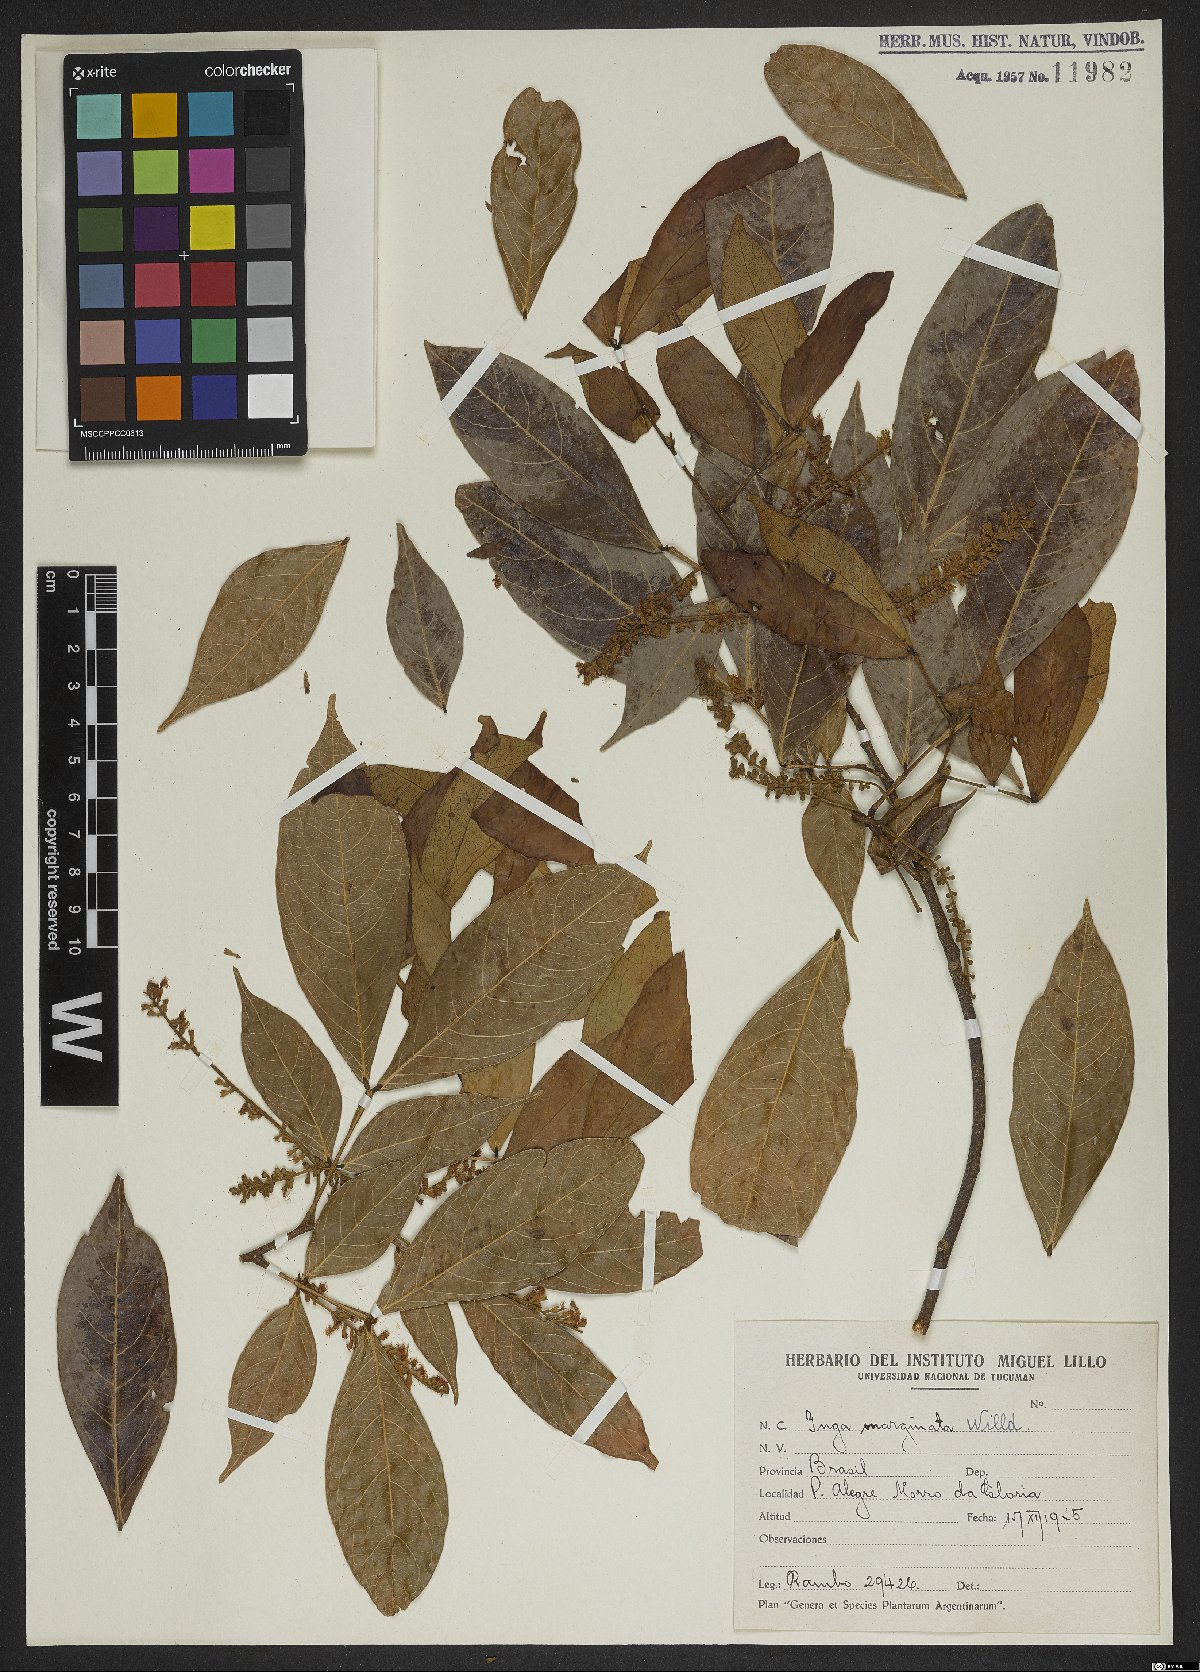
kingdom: Plantae
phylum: Tracheophyta
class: Magnoliopsida
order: Fabales
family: Fabaceae
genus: Inga
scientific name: Inga marginata
